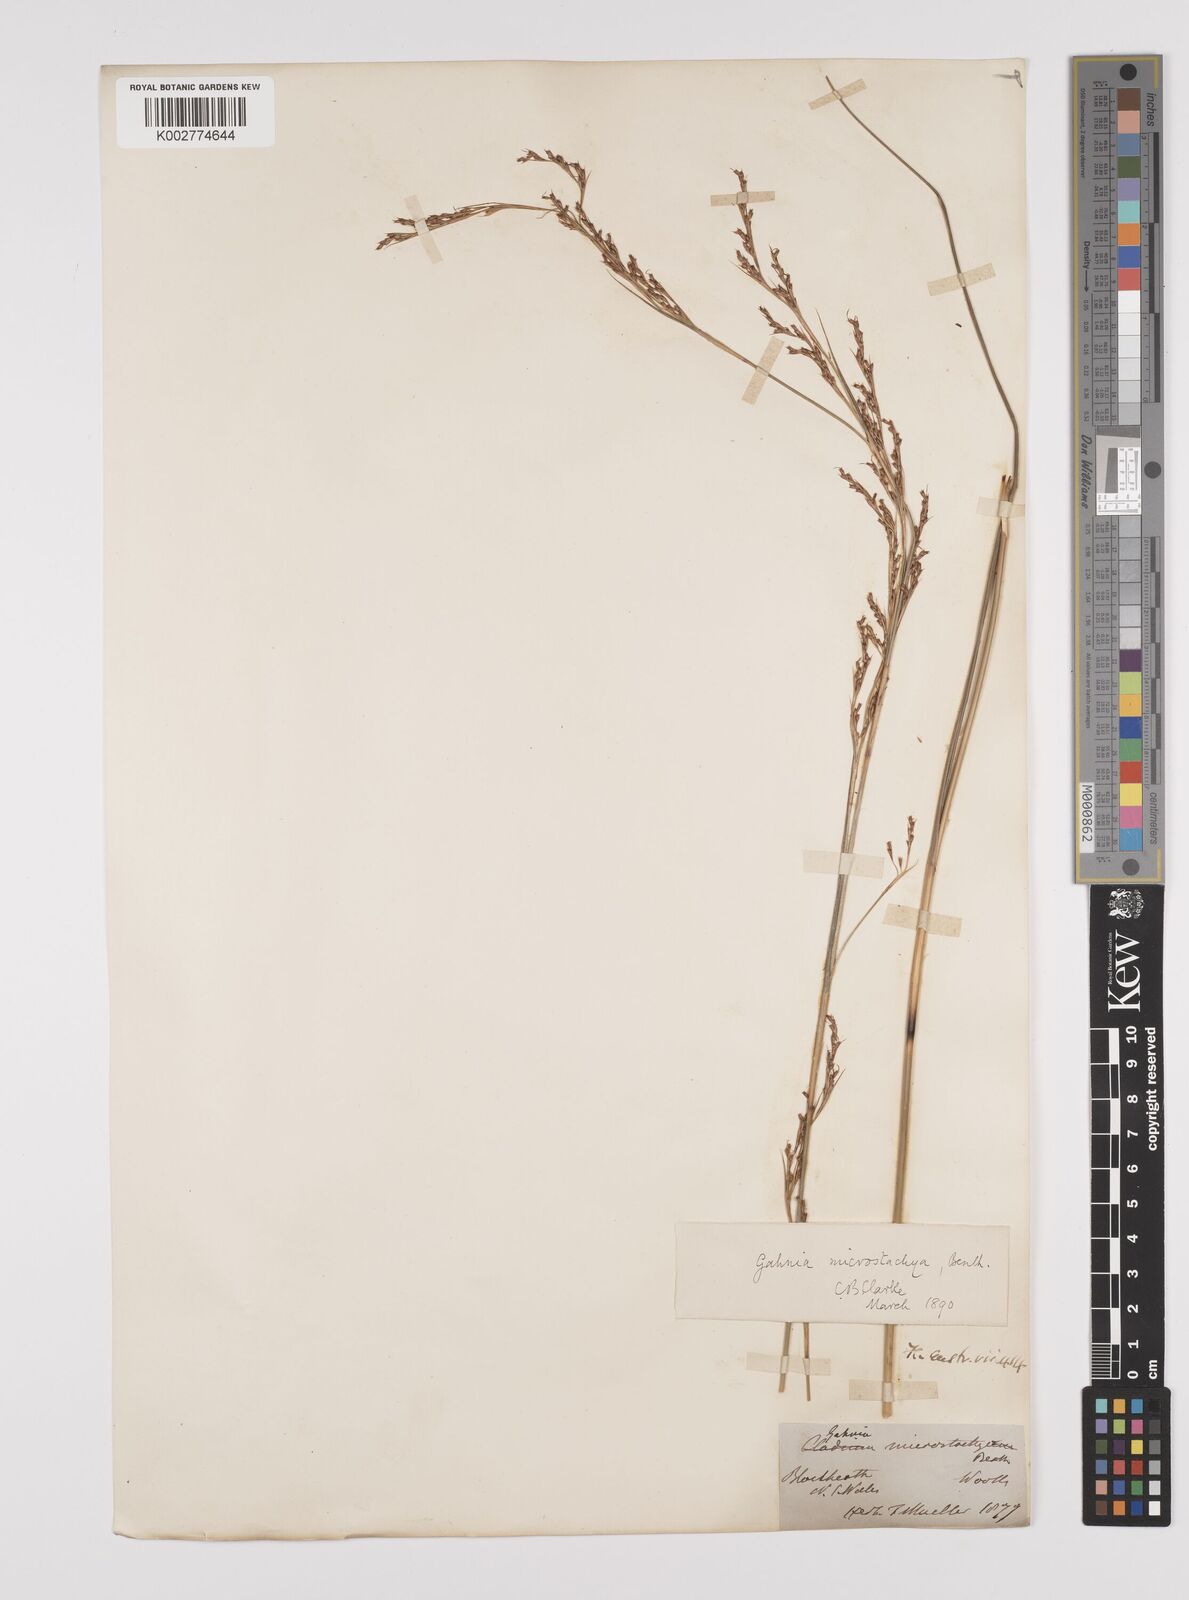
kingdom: Plantae
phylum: Tracheophyta
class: Liliopsida
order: Poales
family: Cyperaceae
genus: Gahnia
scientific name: Gahnia microstachya
